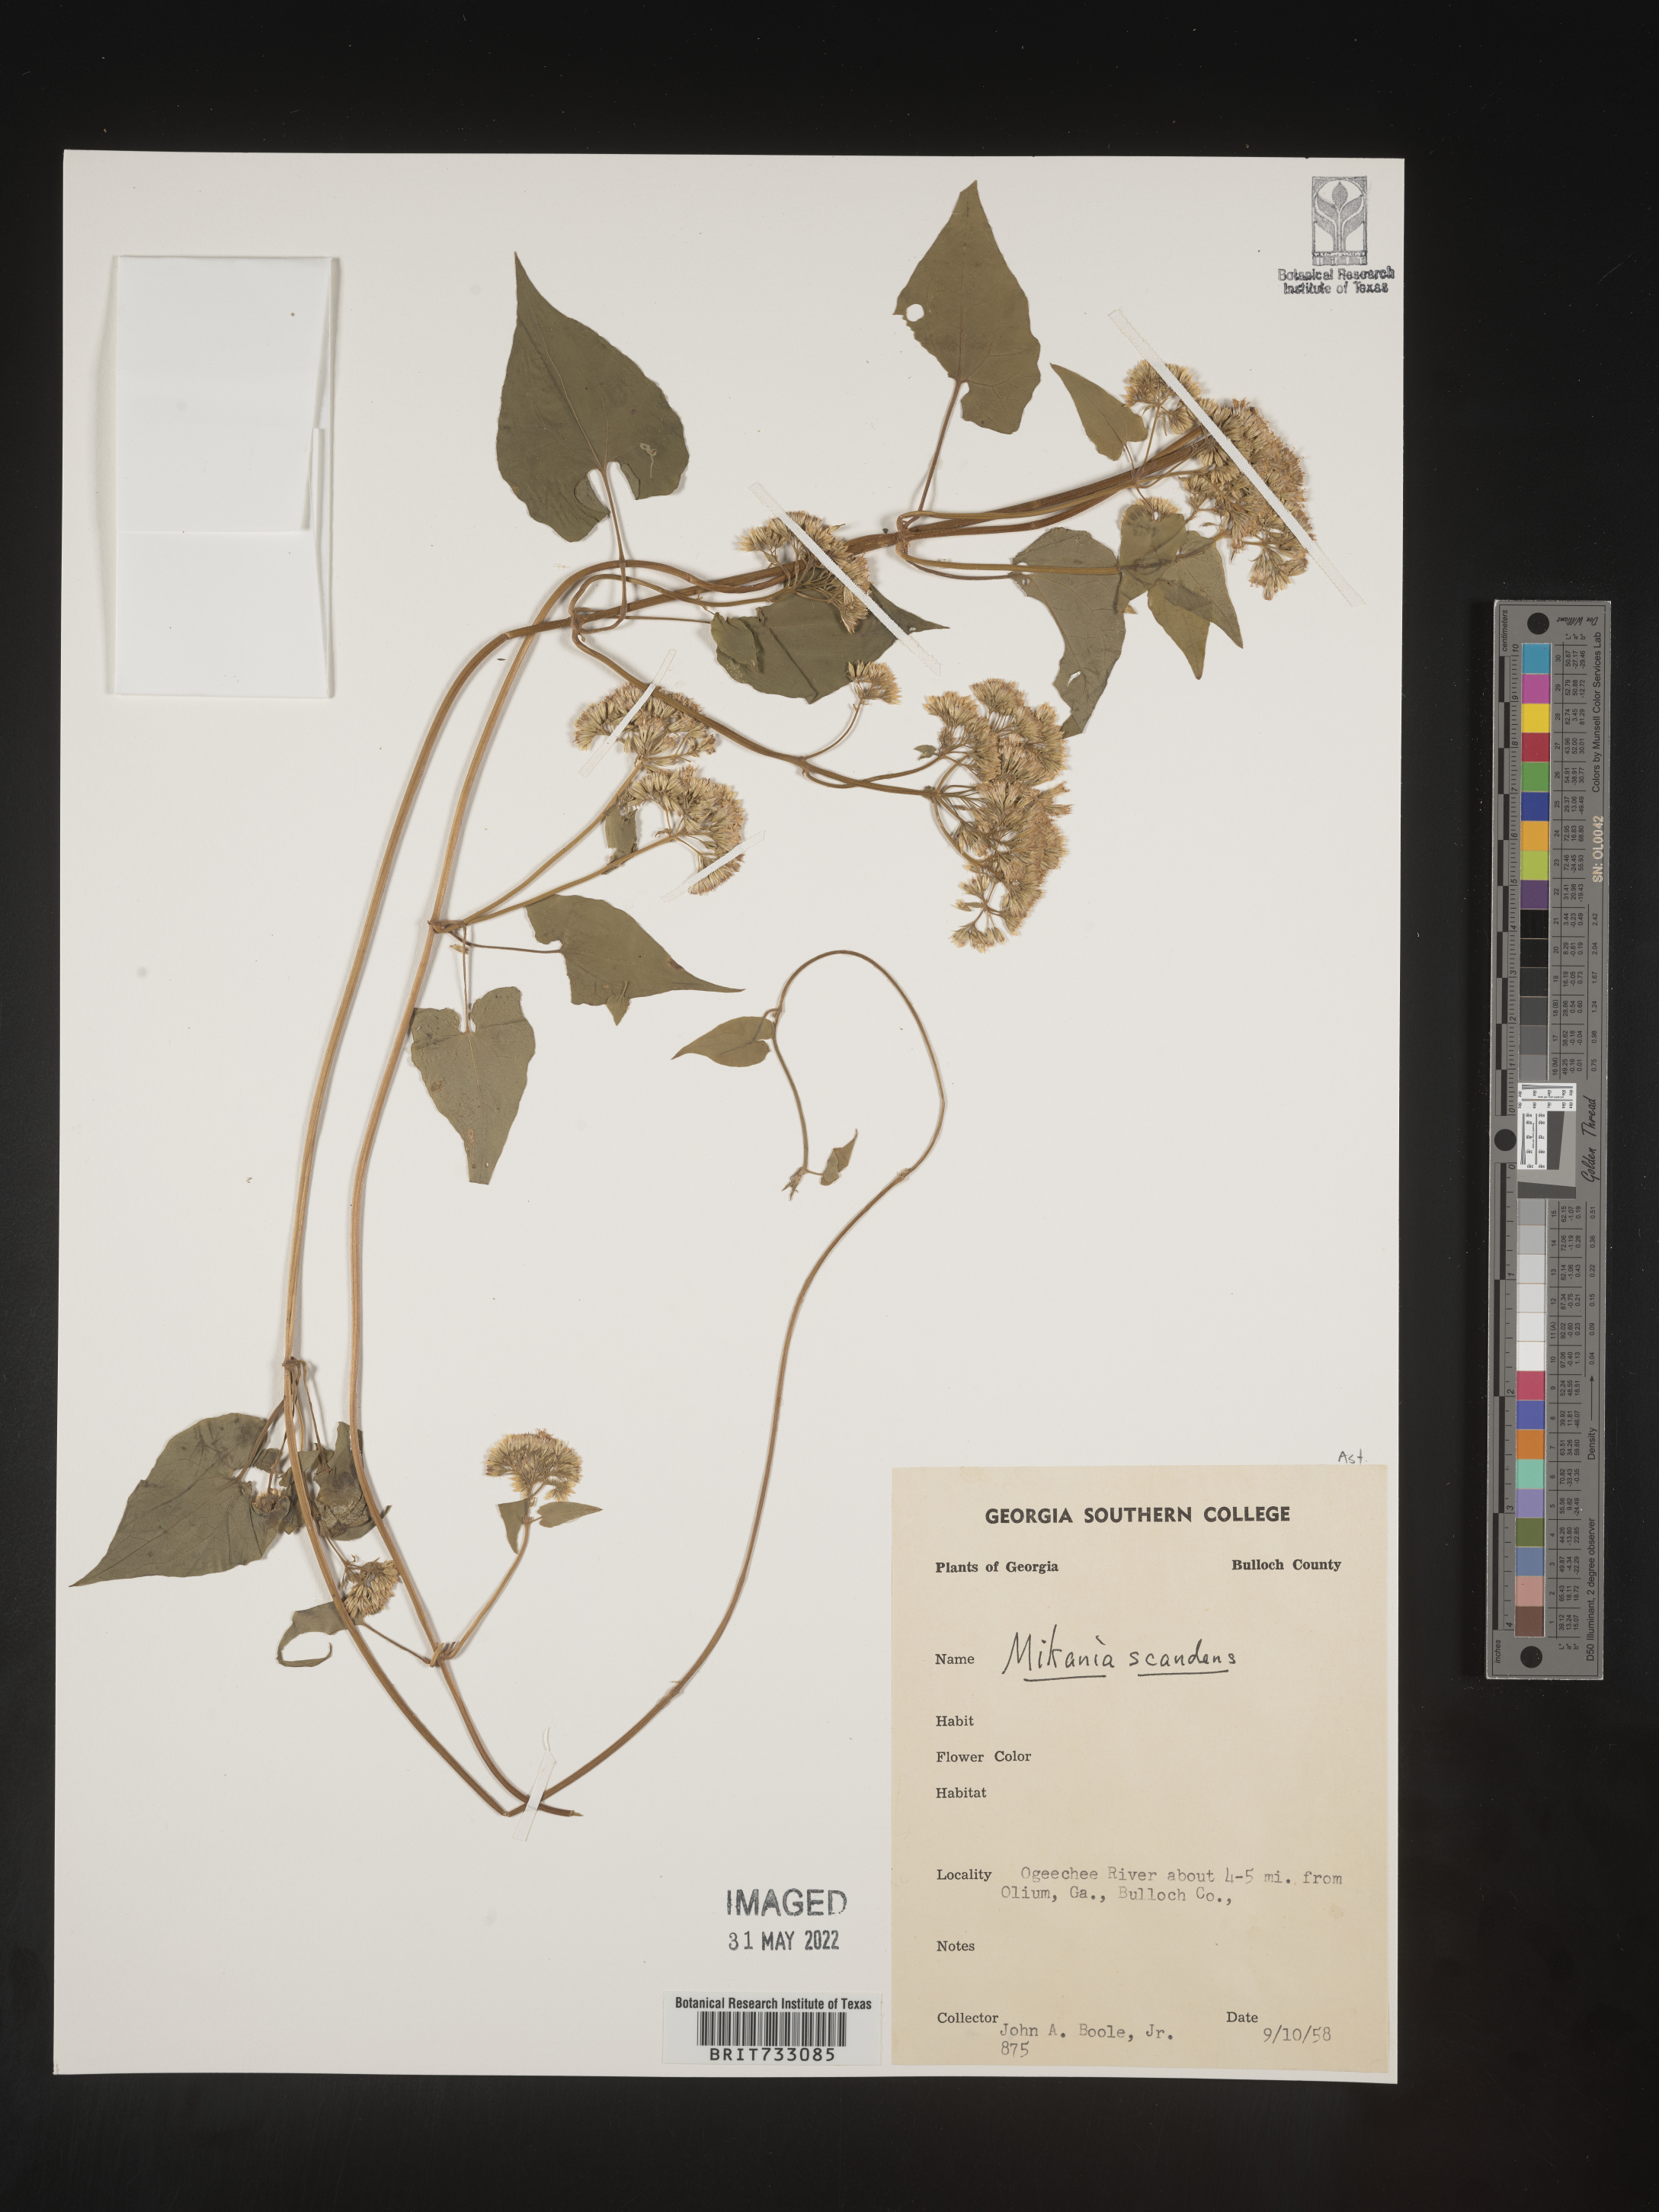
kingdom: Plantae
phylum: Tracheophyta
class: Magnoliopsida
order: Asterales
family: Asteraceae
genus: Mikania
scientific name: Mikania scandens
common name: Climbing hempvine
